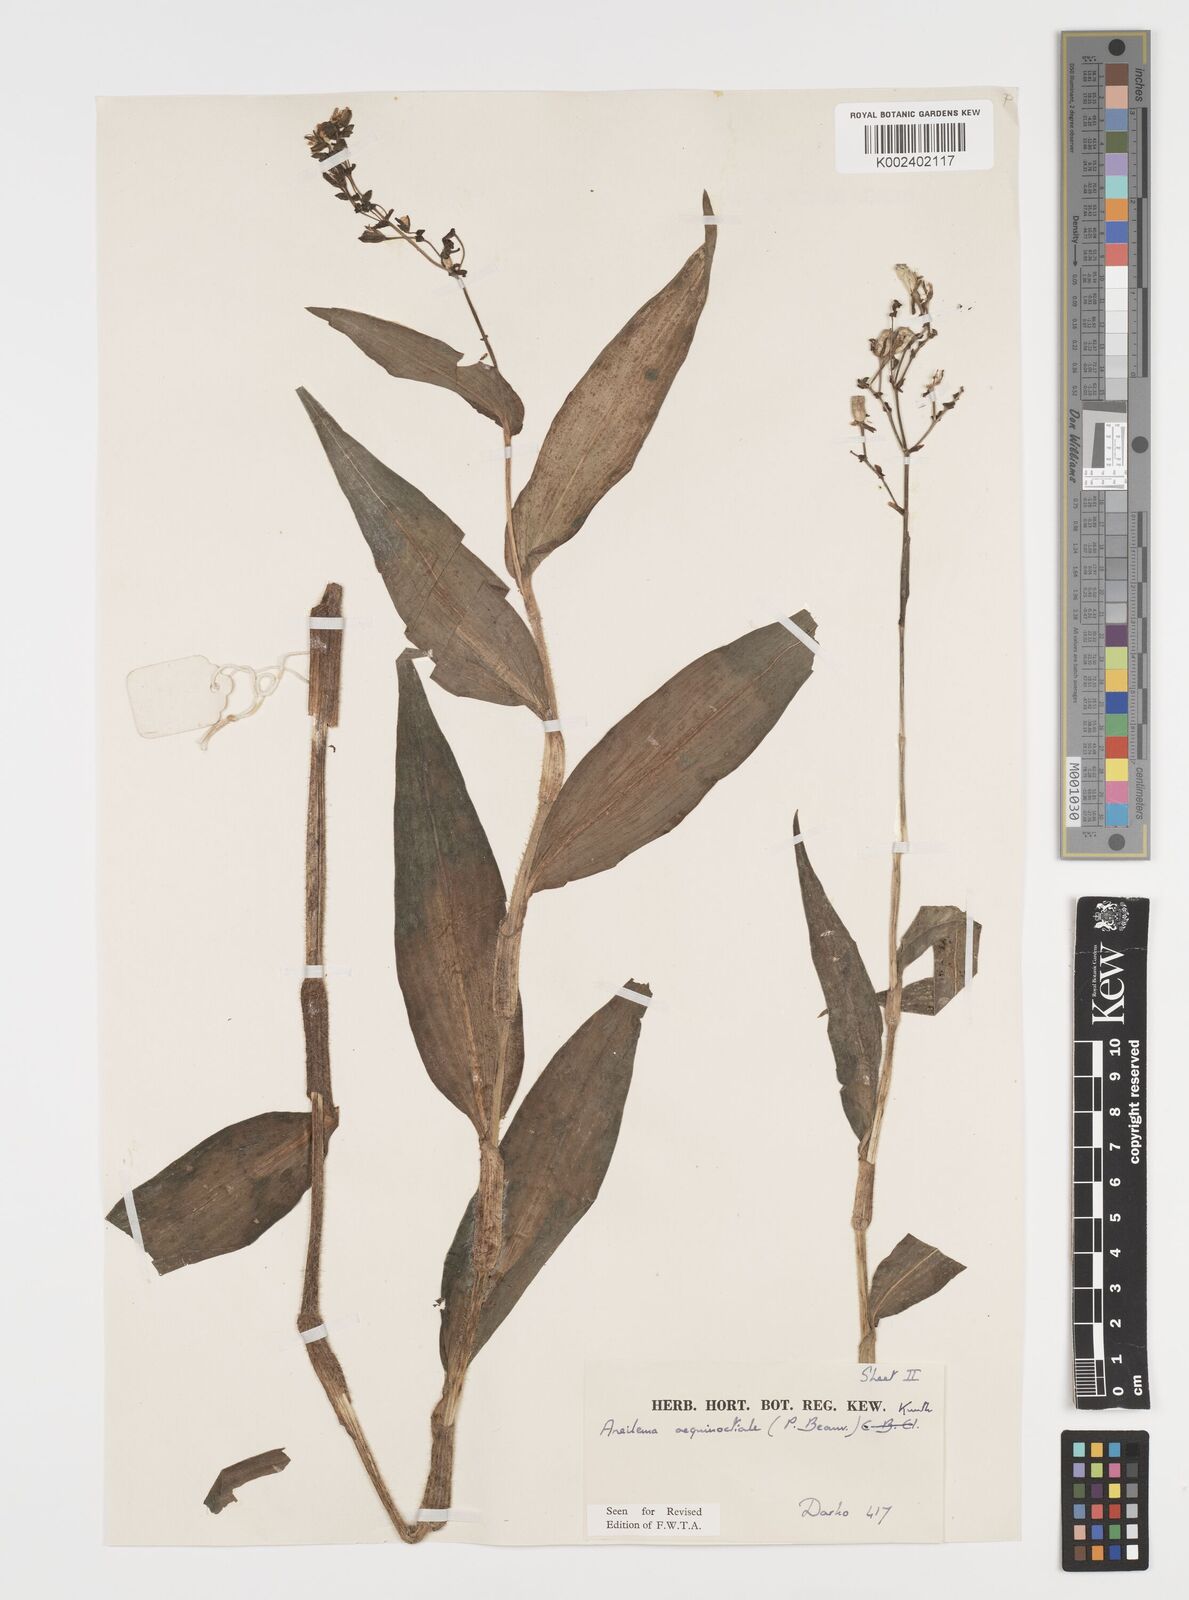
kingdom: Plantae
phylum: Tracheophyta
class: Liliopsida
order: Commelinales
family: Commelinaceae
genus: Aneilema
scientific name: Aneilema aequinoctiale
